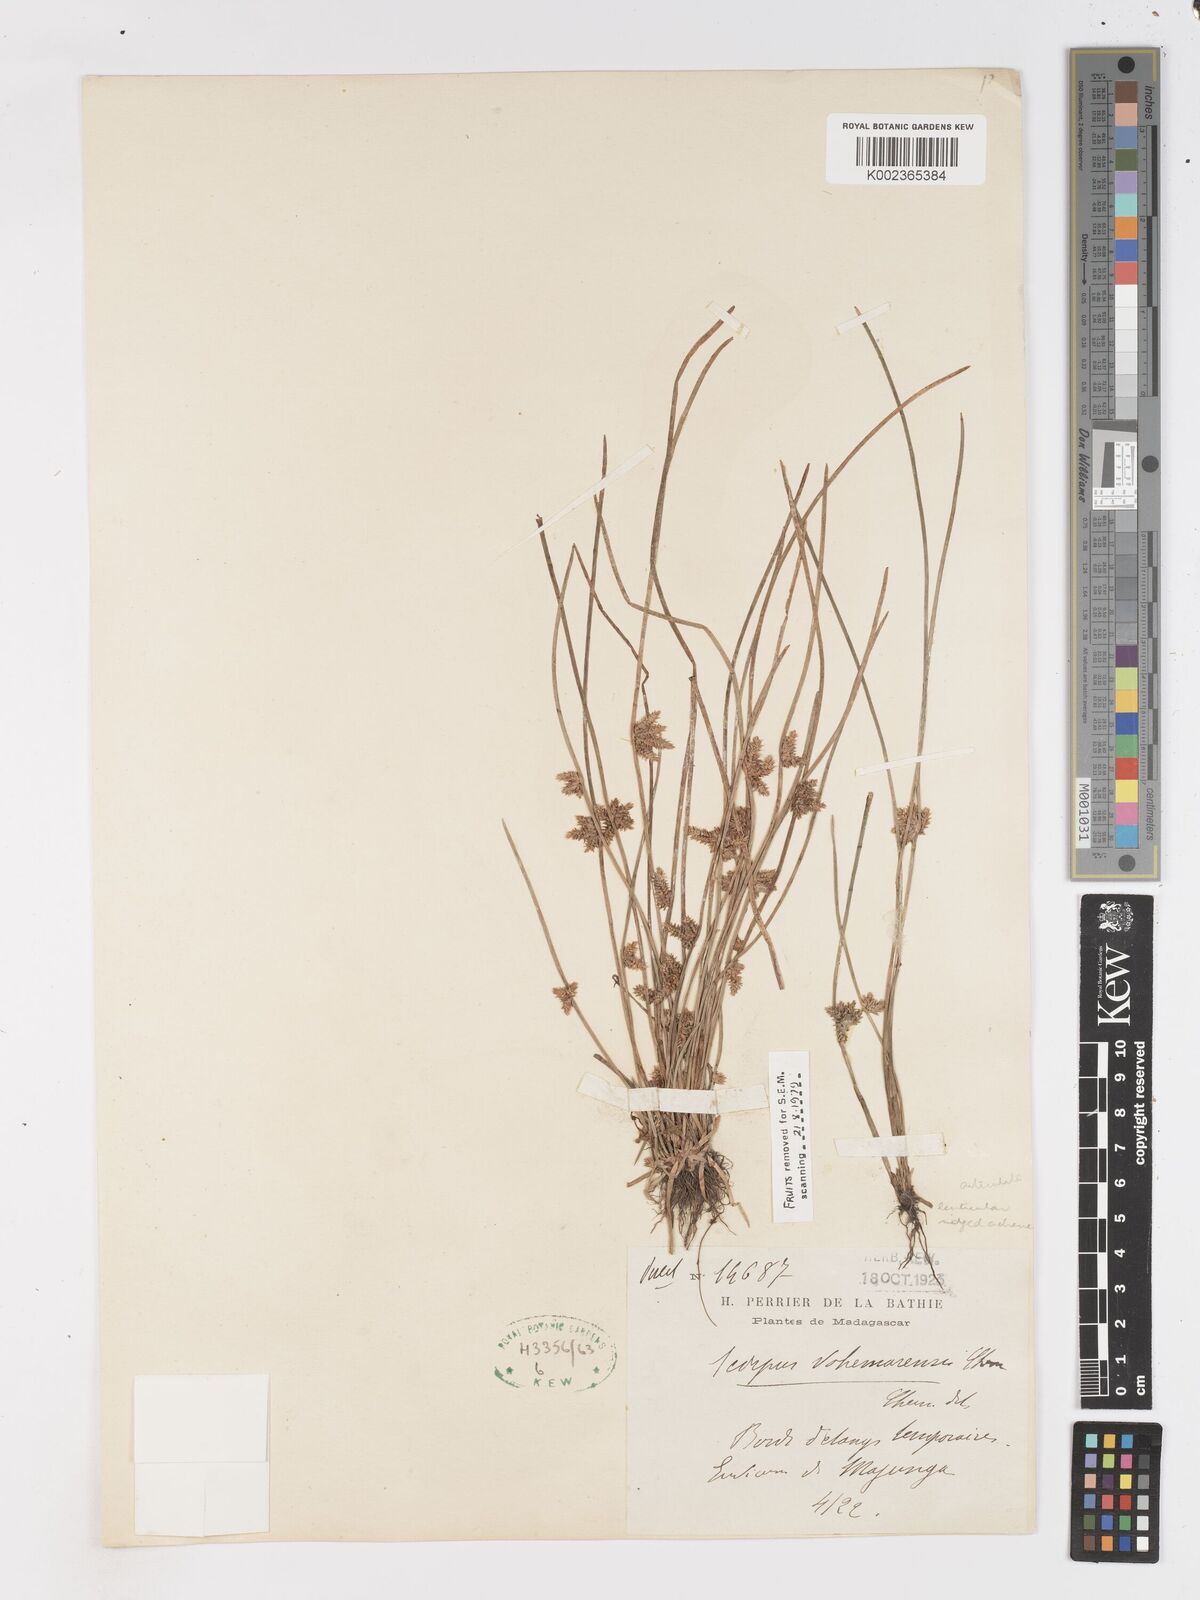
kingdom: Plantae
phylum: Tracheophyta
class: Liliopsida
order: Poales
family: Cyperaceae
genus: Schoenoplectiella
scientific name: Schoenoplectiella vohemarensis
